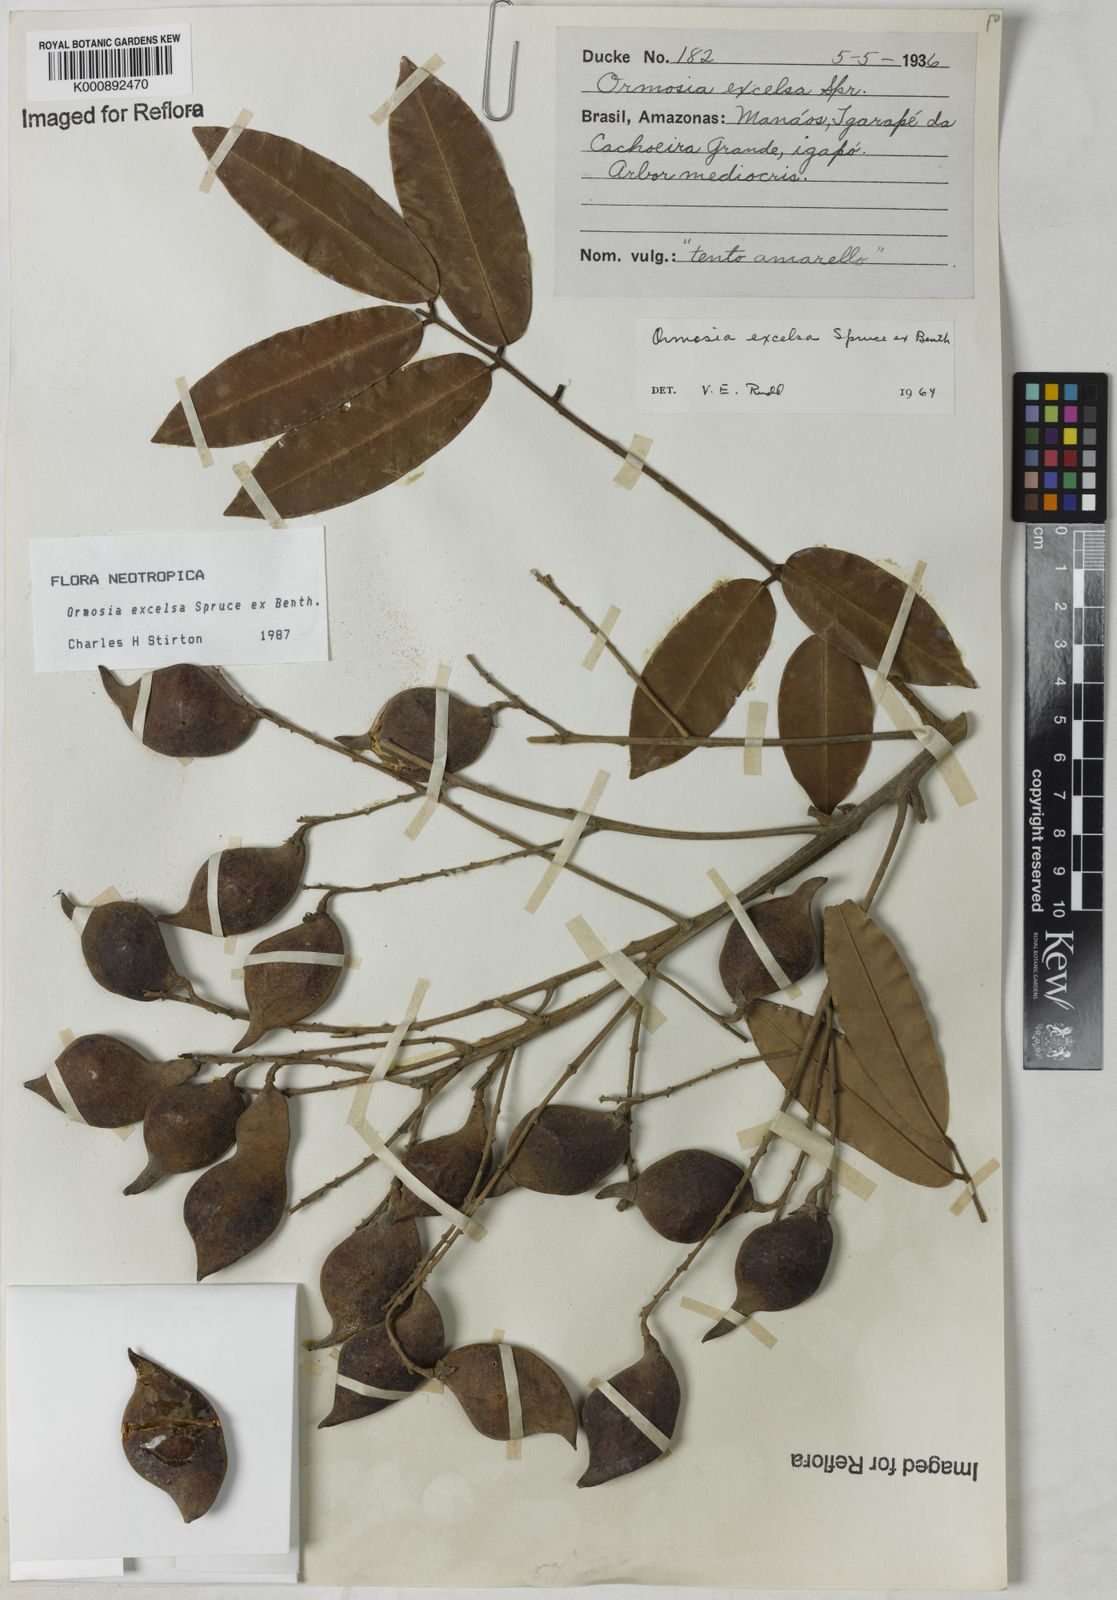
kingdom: Plantae
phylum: Tracheophyta
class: Magnoliopsida
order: Fabales
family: Fabaceae
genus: Ormosia
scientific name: Ormosia excelsa
